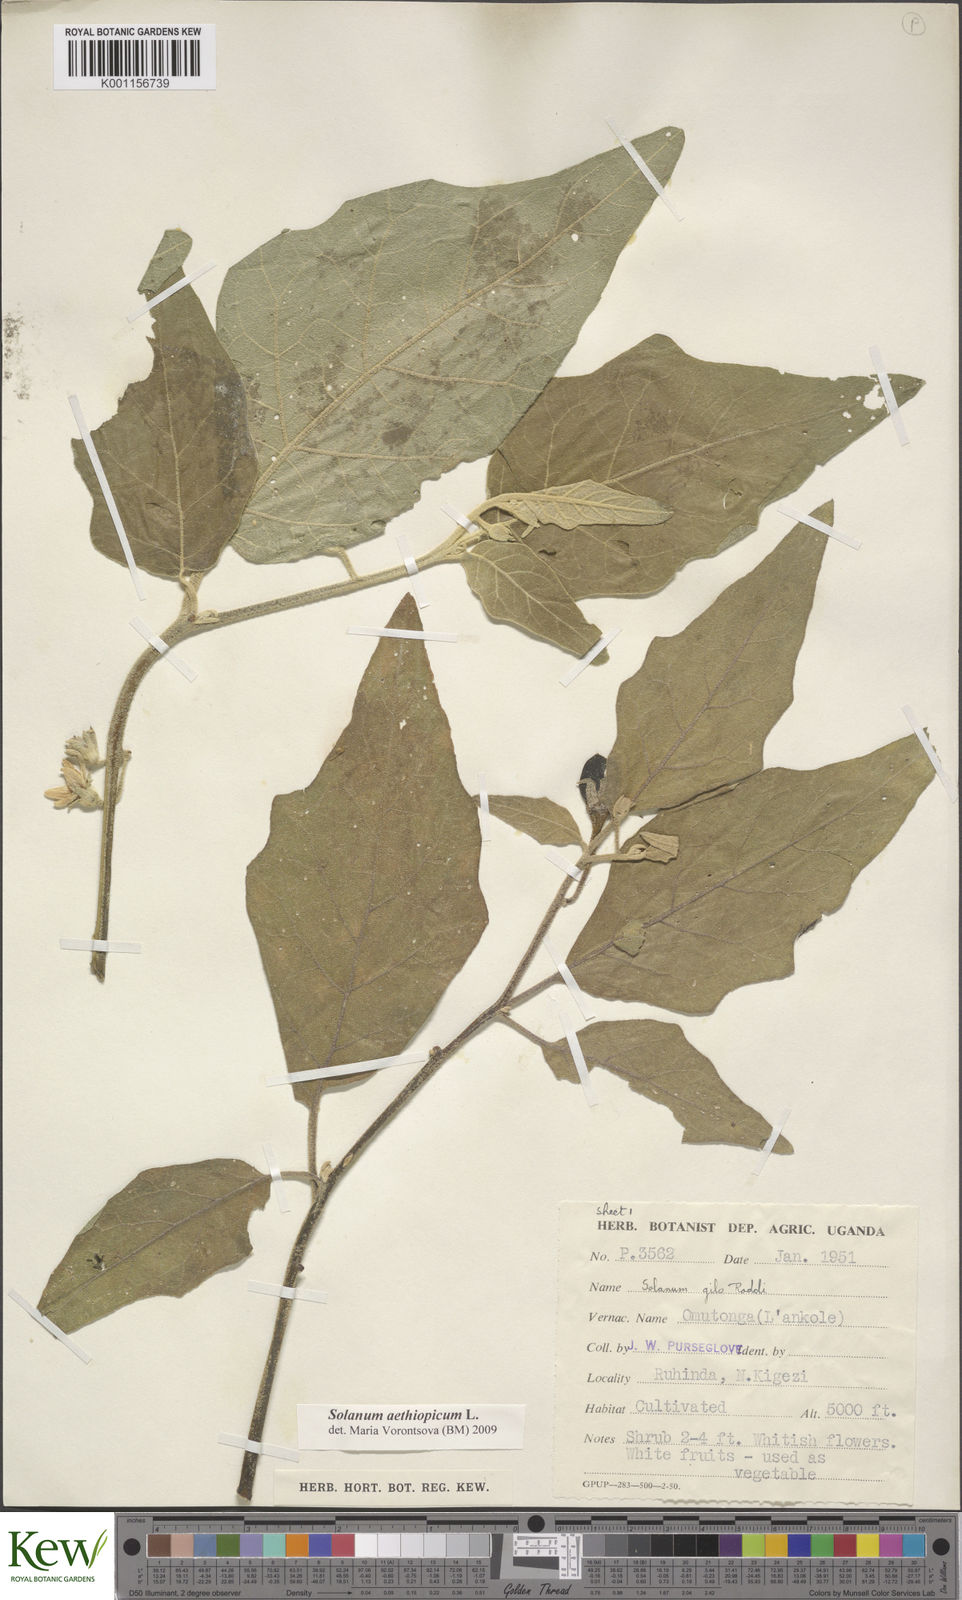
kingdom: Plantae
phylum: Tracheophyta
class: Magnoliopsida
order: Solanales
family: Solanaceae
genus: Solanum
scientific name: Solanum aethiopicum
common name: Gilo
